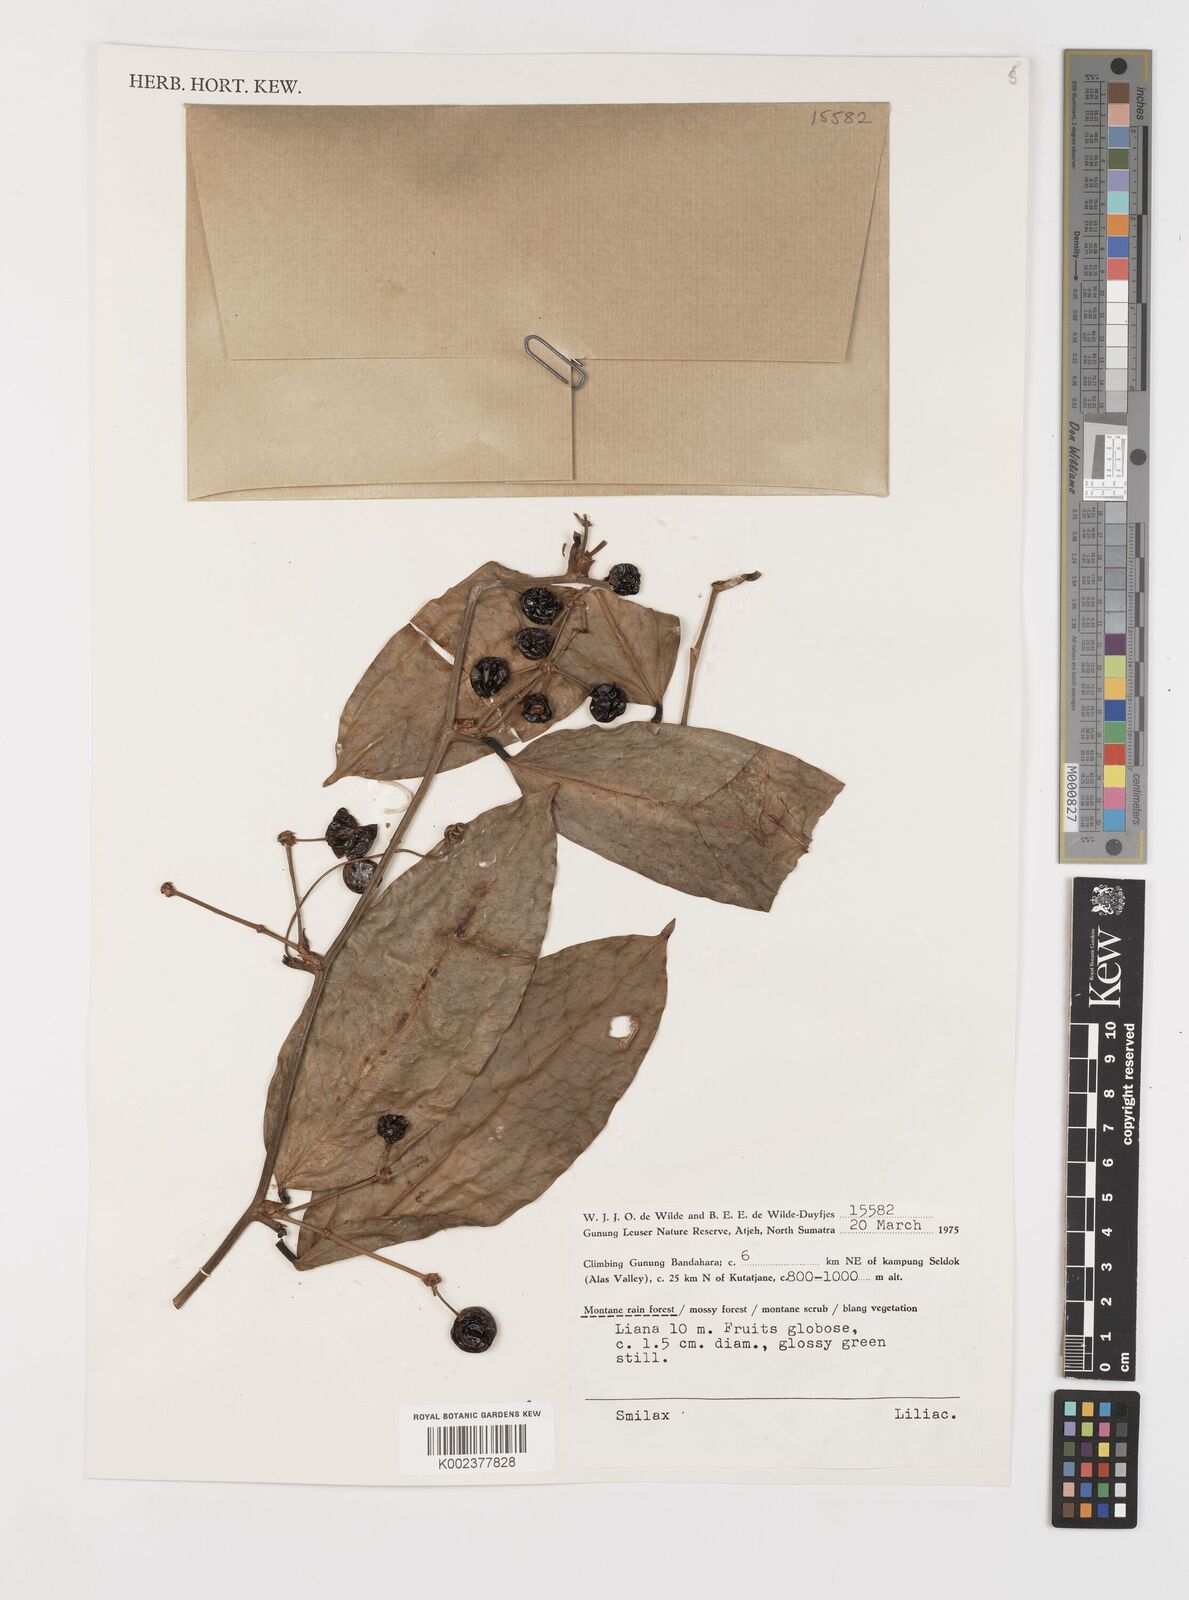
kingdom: Plantae
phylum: Tracheophyta
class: Liliopsida
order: Liliales
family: Smilacaceae
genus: Smilax
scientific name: Smilax
